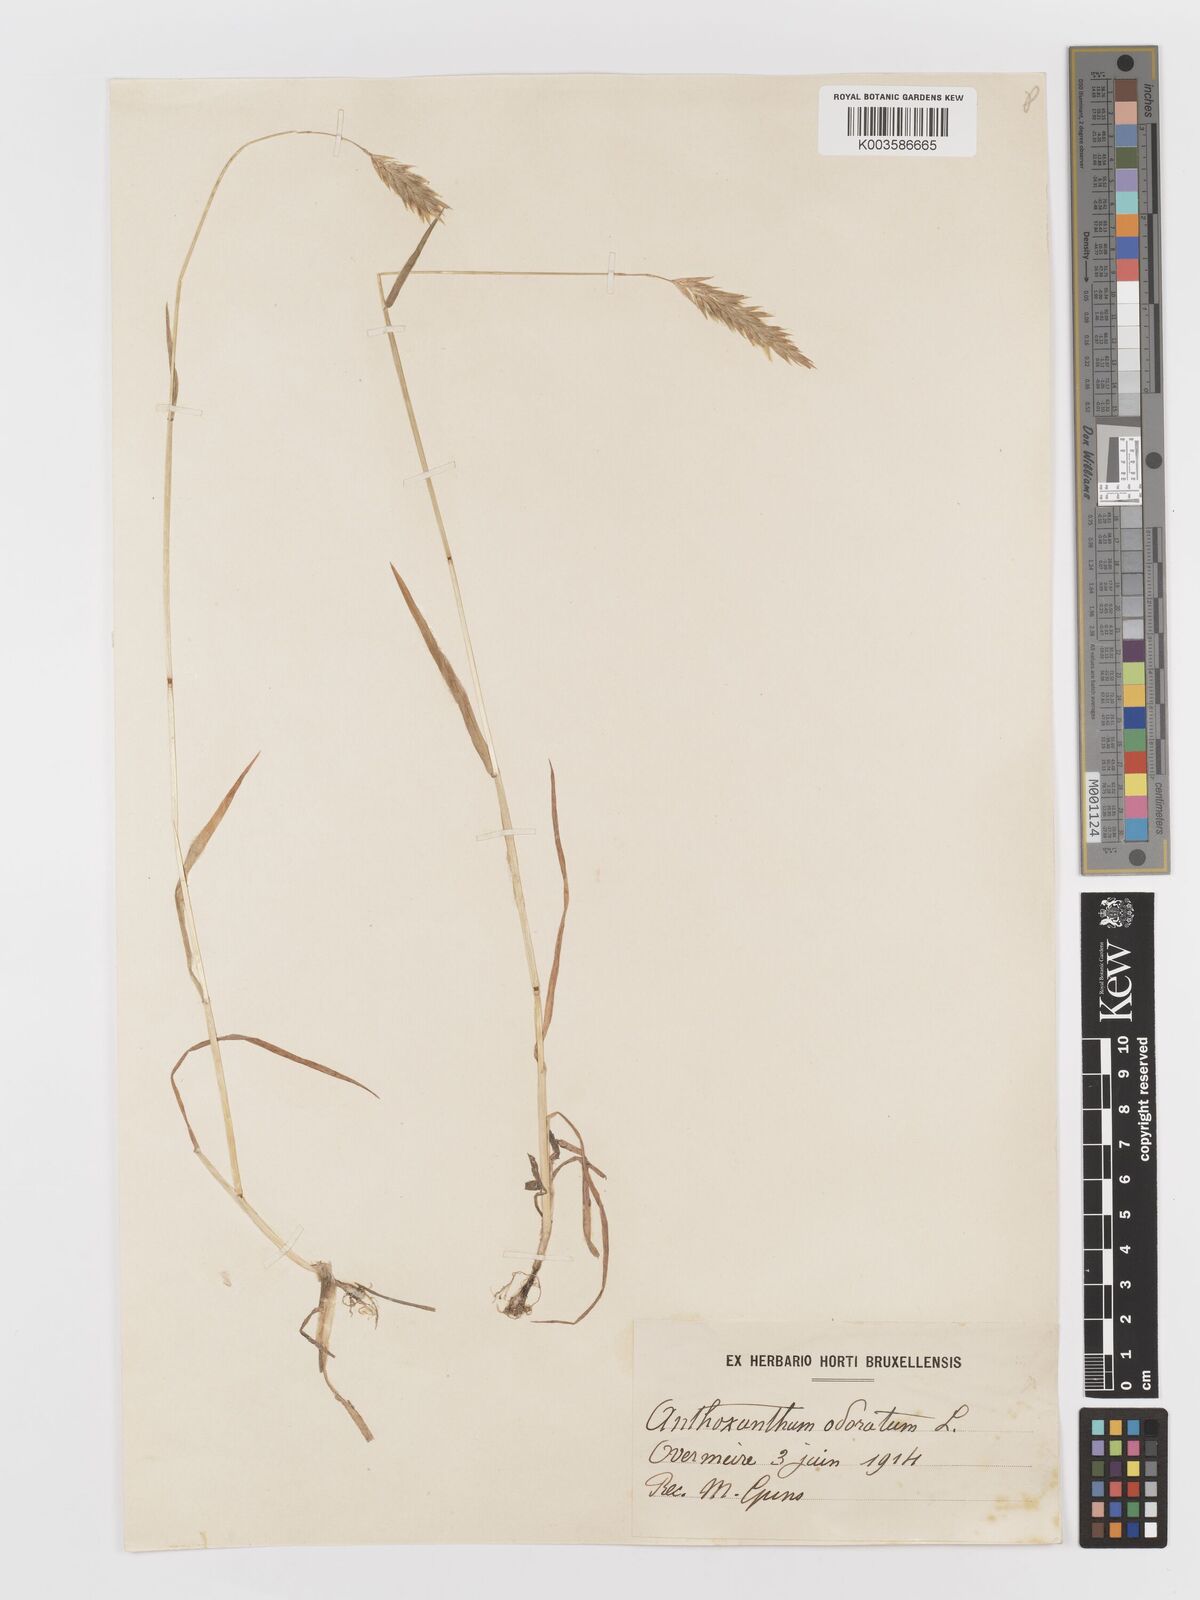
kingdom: Plantae
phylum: Tracheophyta
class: Liliopsida
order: Poales
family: Poaceae
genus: Anthoxanthum
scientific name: Anthoxanthum odoratum
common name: Sweet vernalgrass
